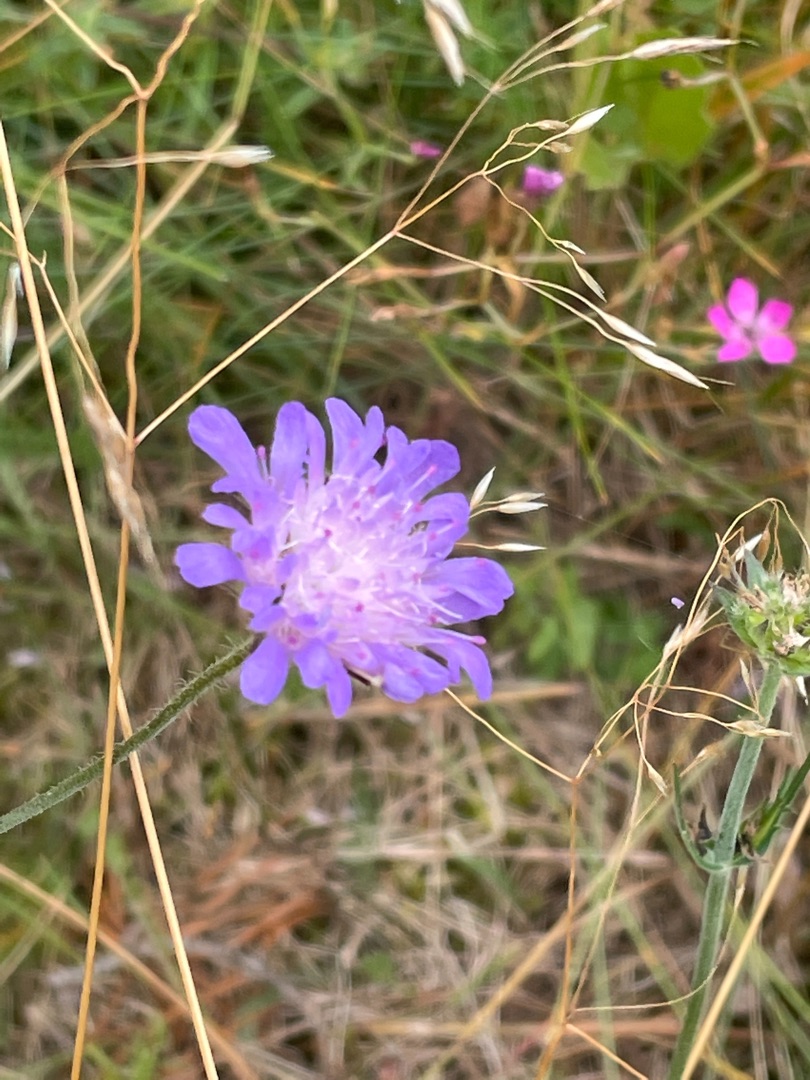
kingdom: Plantae
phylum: Tracheophyta
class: Magnoliopsida
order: Dipsacales
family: Caprifoliaceae
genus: Knautia
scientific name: Knautia arvensis
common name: Blåhat
